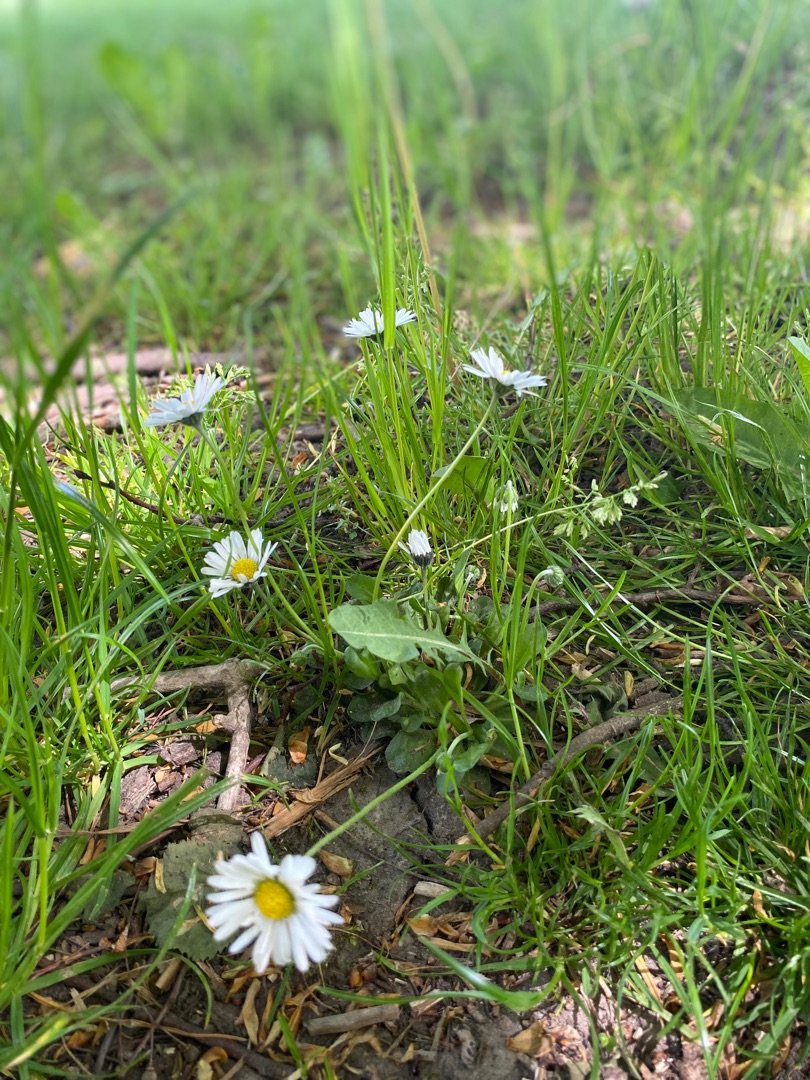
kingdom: Plantae
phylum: Tracheophyta
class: Magnoliopsida
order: Asterales
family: Asteraceae
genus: Bellis
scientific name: Bellis perennis
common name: Tusindfryd
